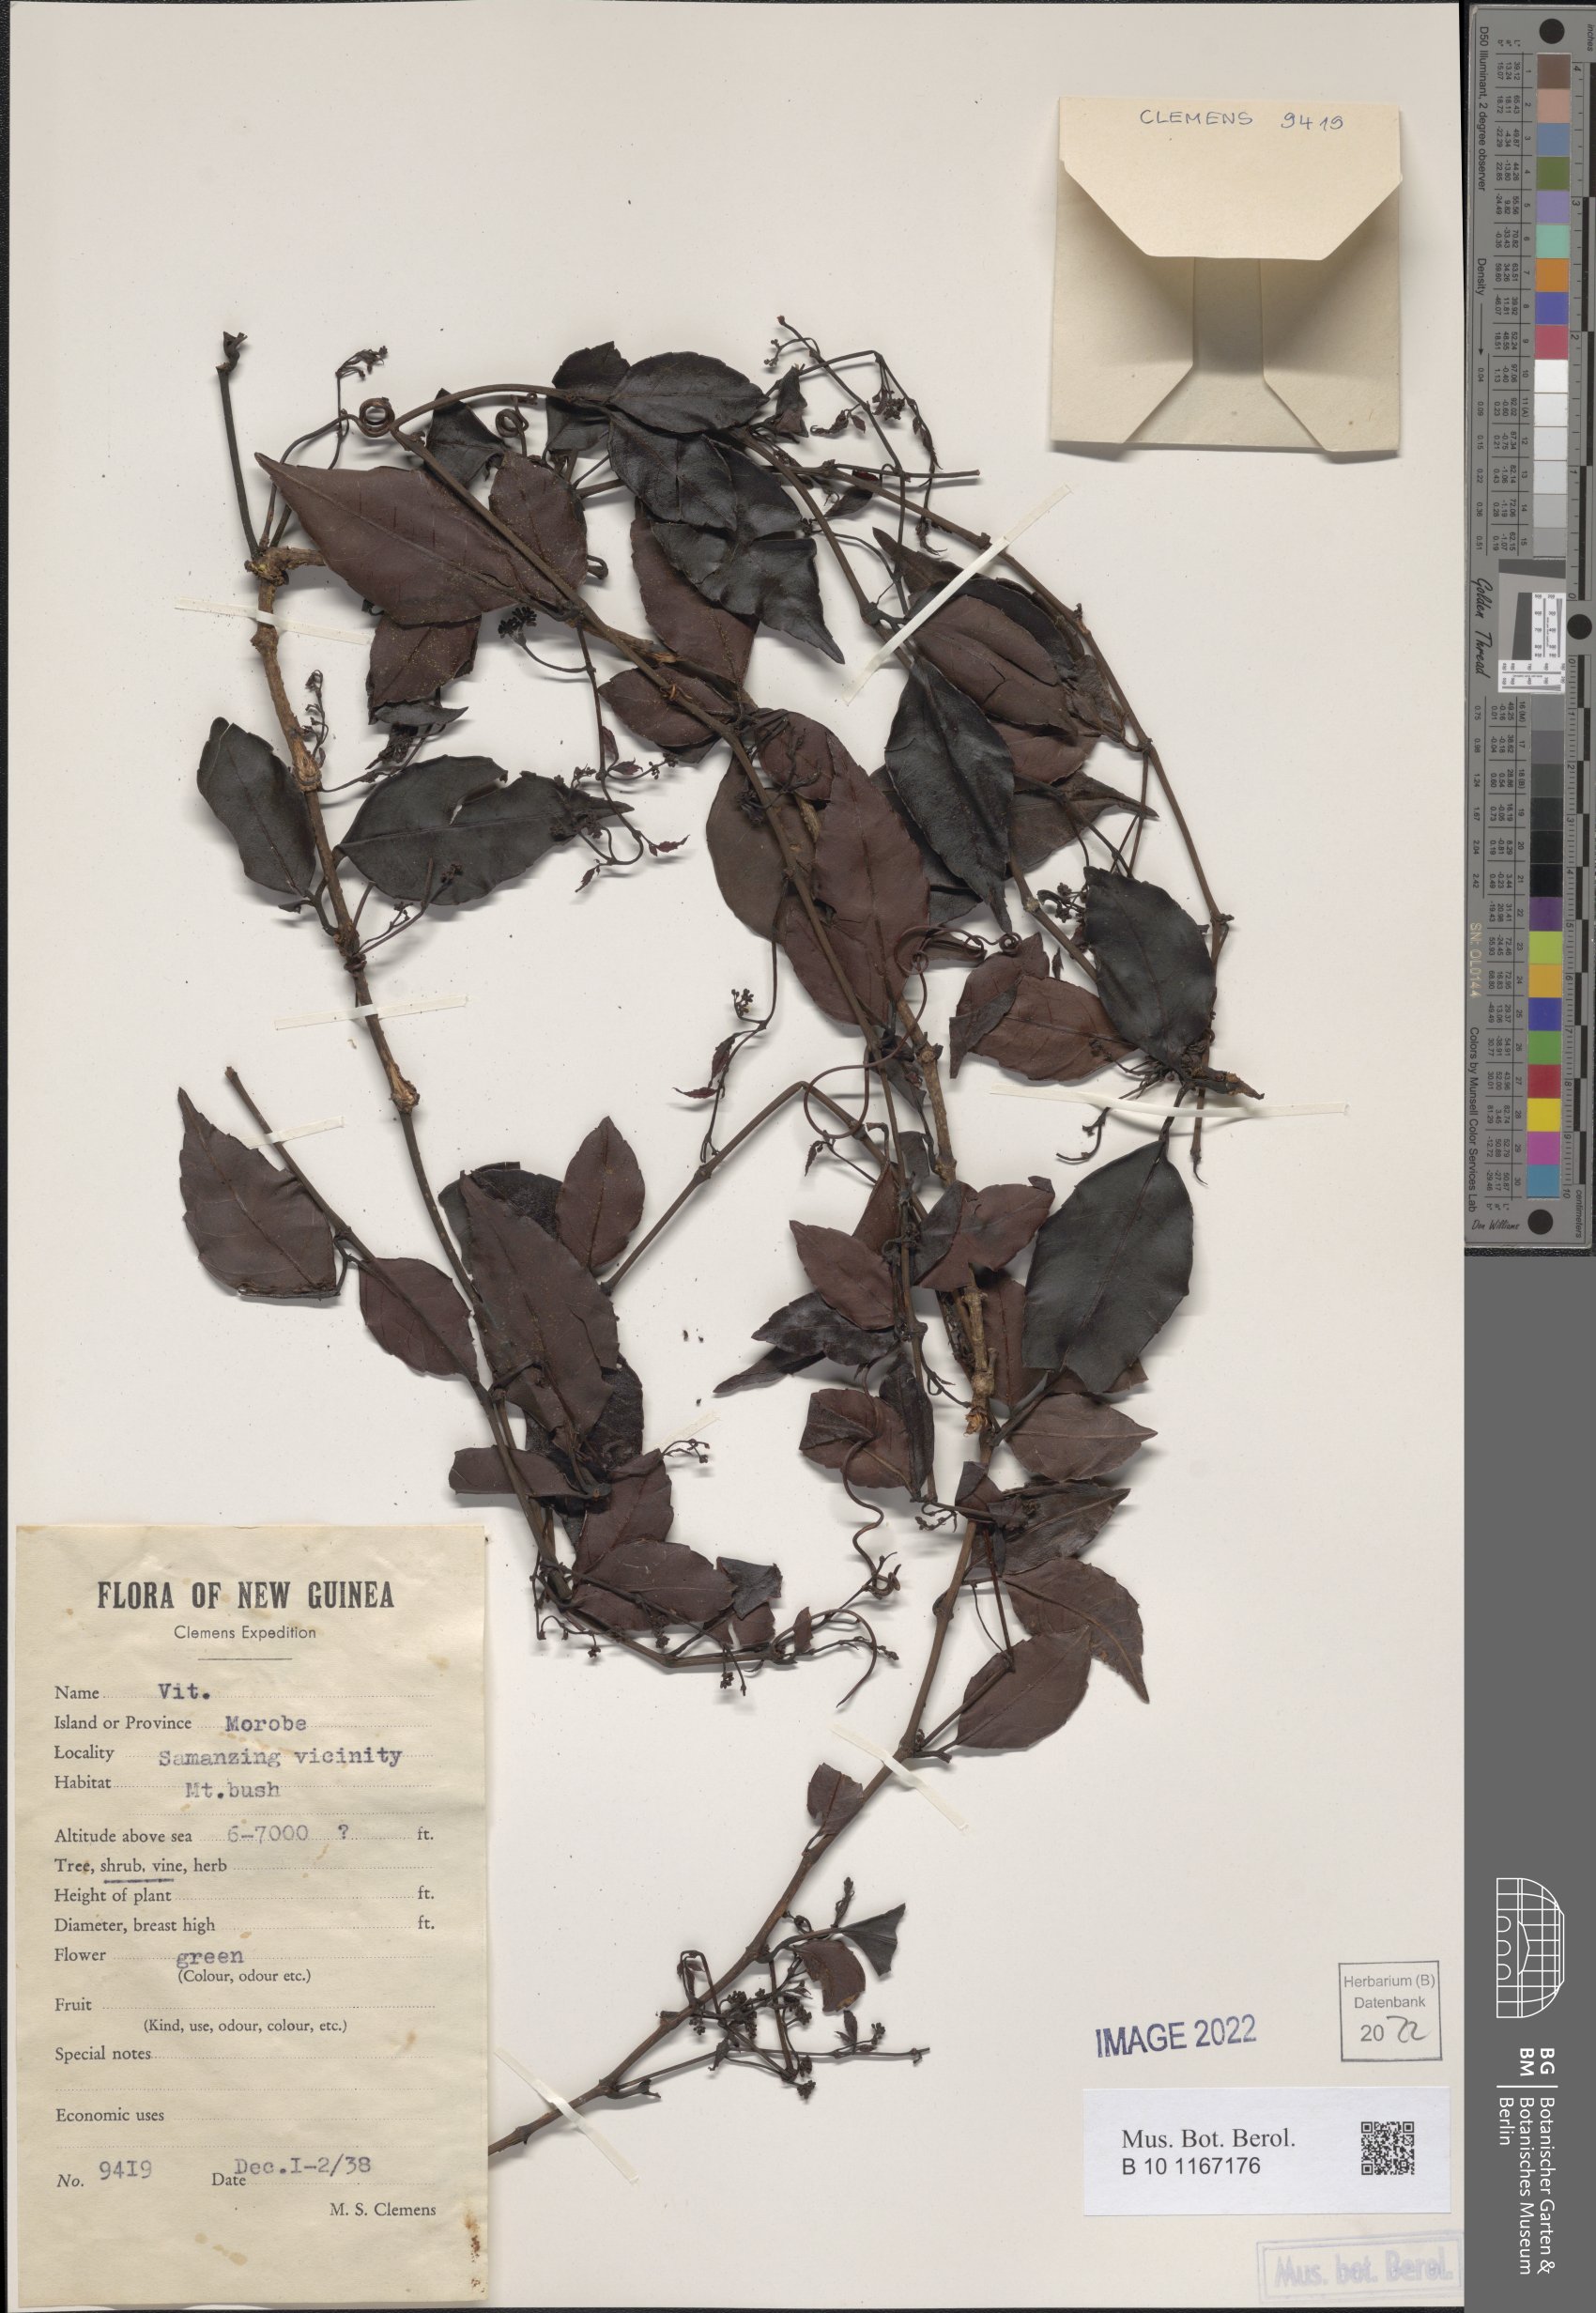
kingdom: Plantae
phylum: Tracheophyta
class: Magnoliopsida
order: Vitales
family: Vitaceae
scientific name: Vitaceae
